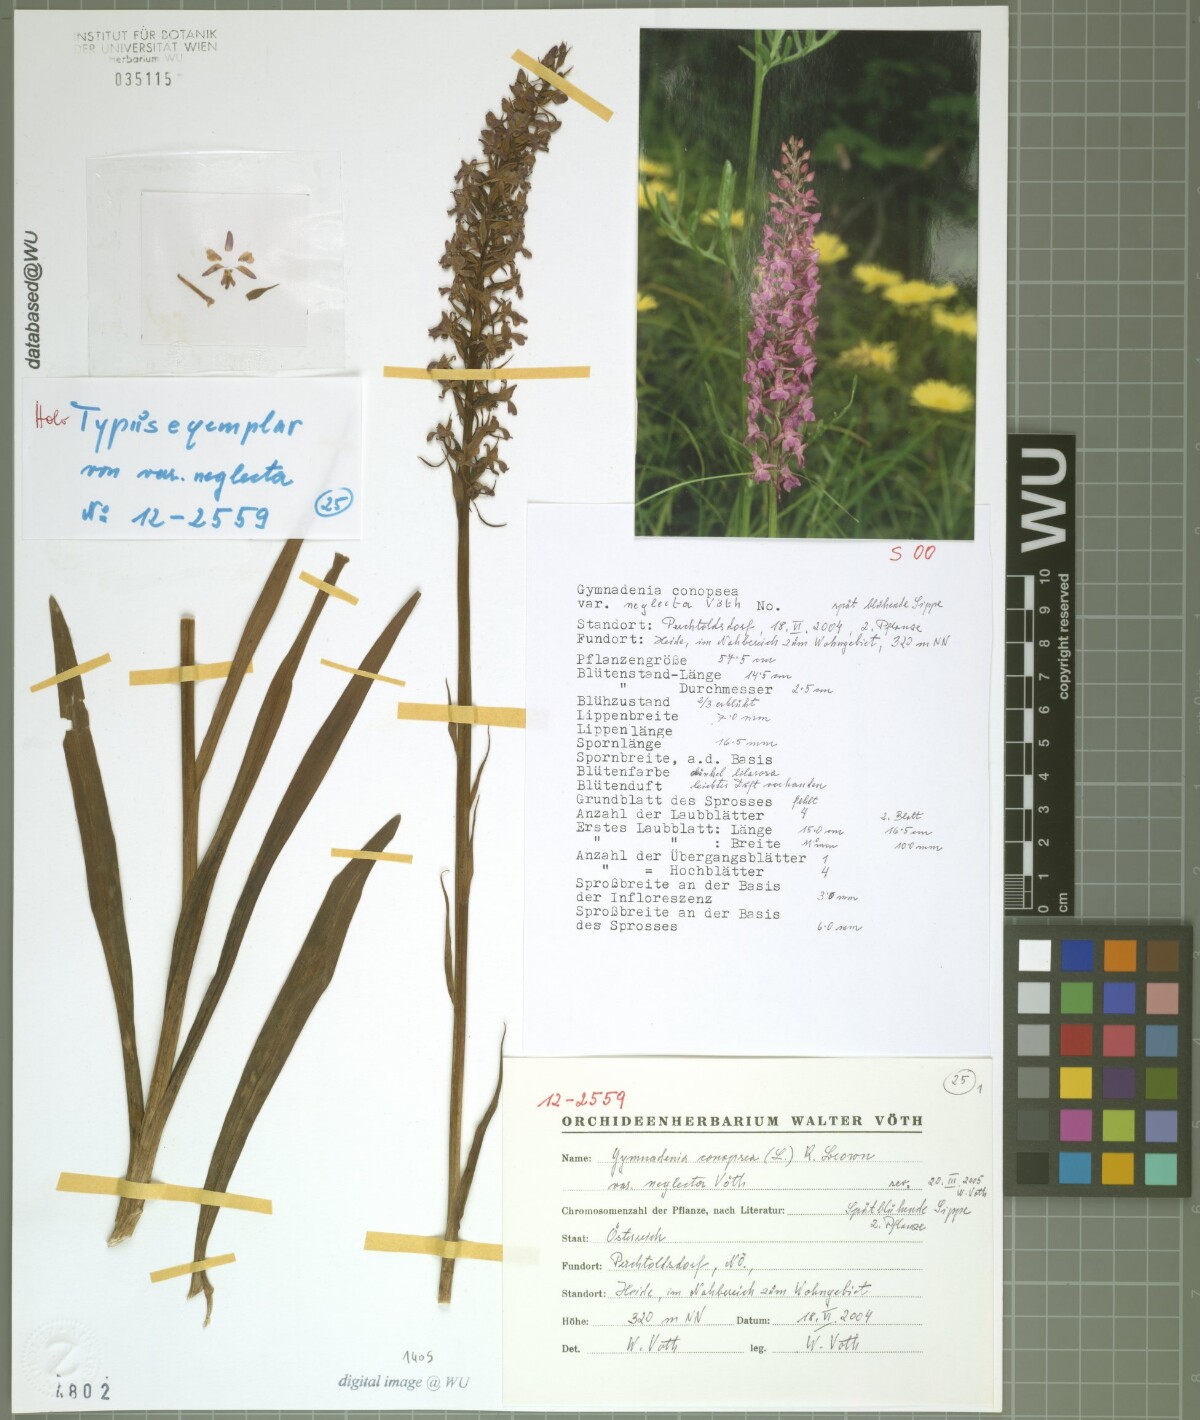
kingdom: Plantae
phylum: Tracheophyta
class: Liliopsida
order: Asparagales
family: Orchidaceae
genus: Gymnadenia
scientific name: Gymnadenia conopsea
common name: Fragrant orchid
